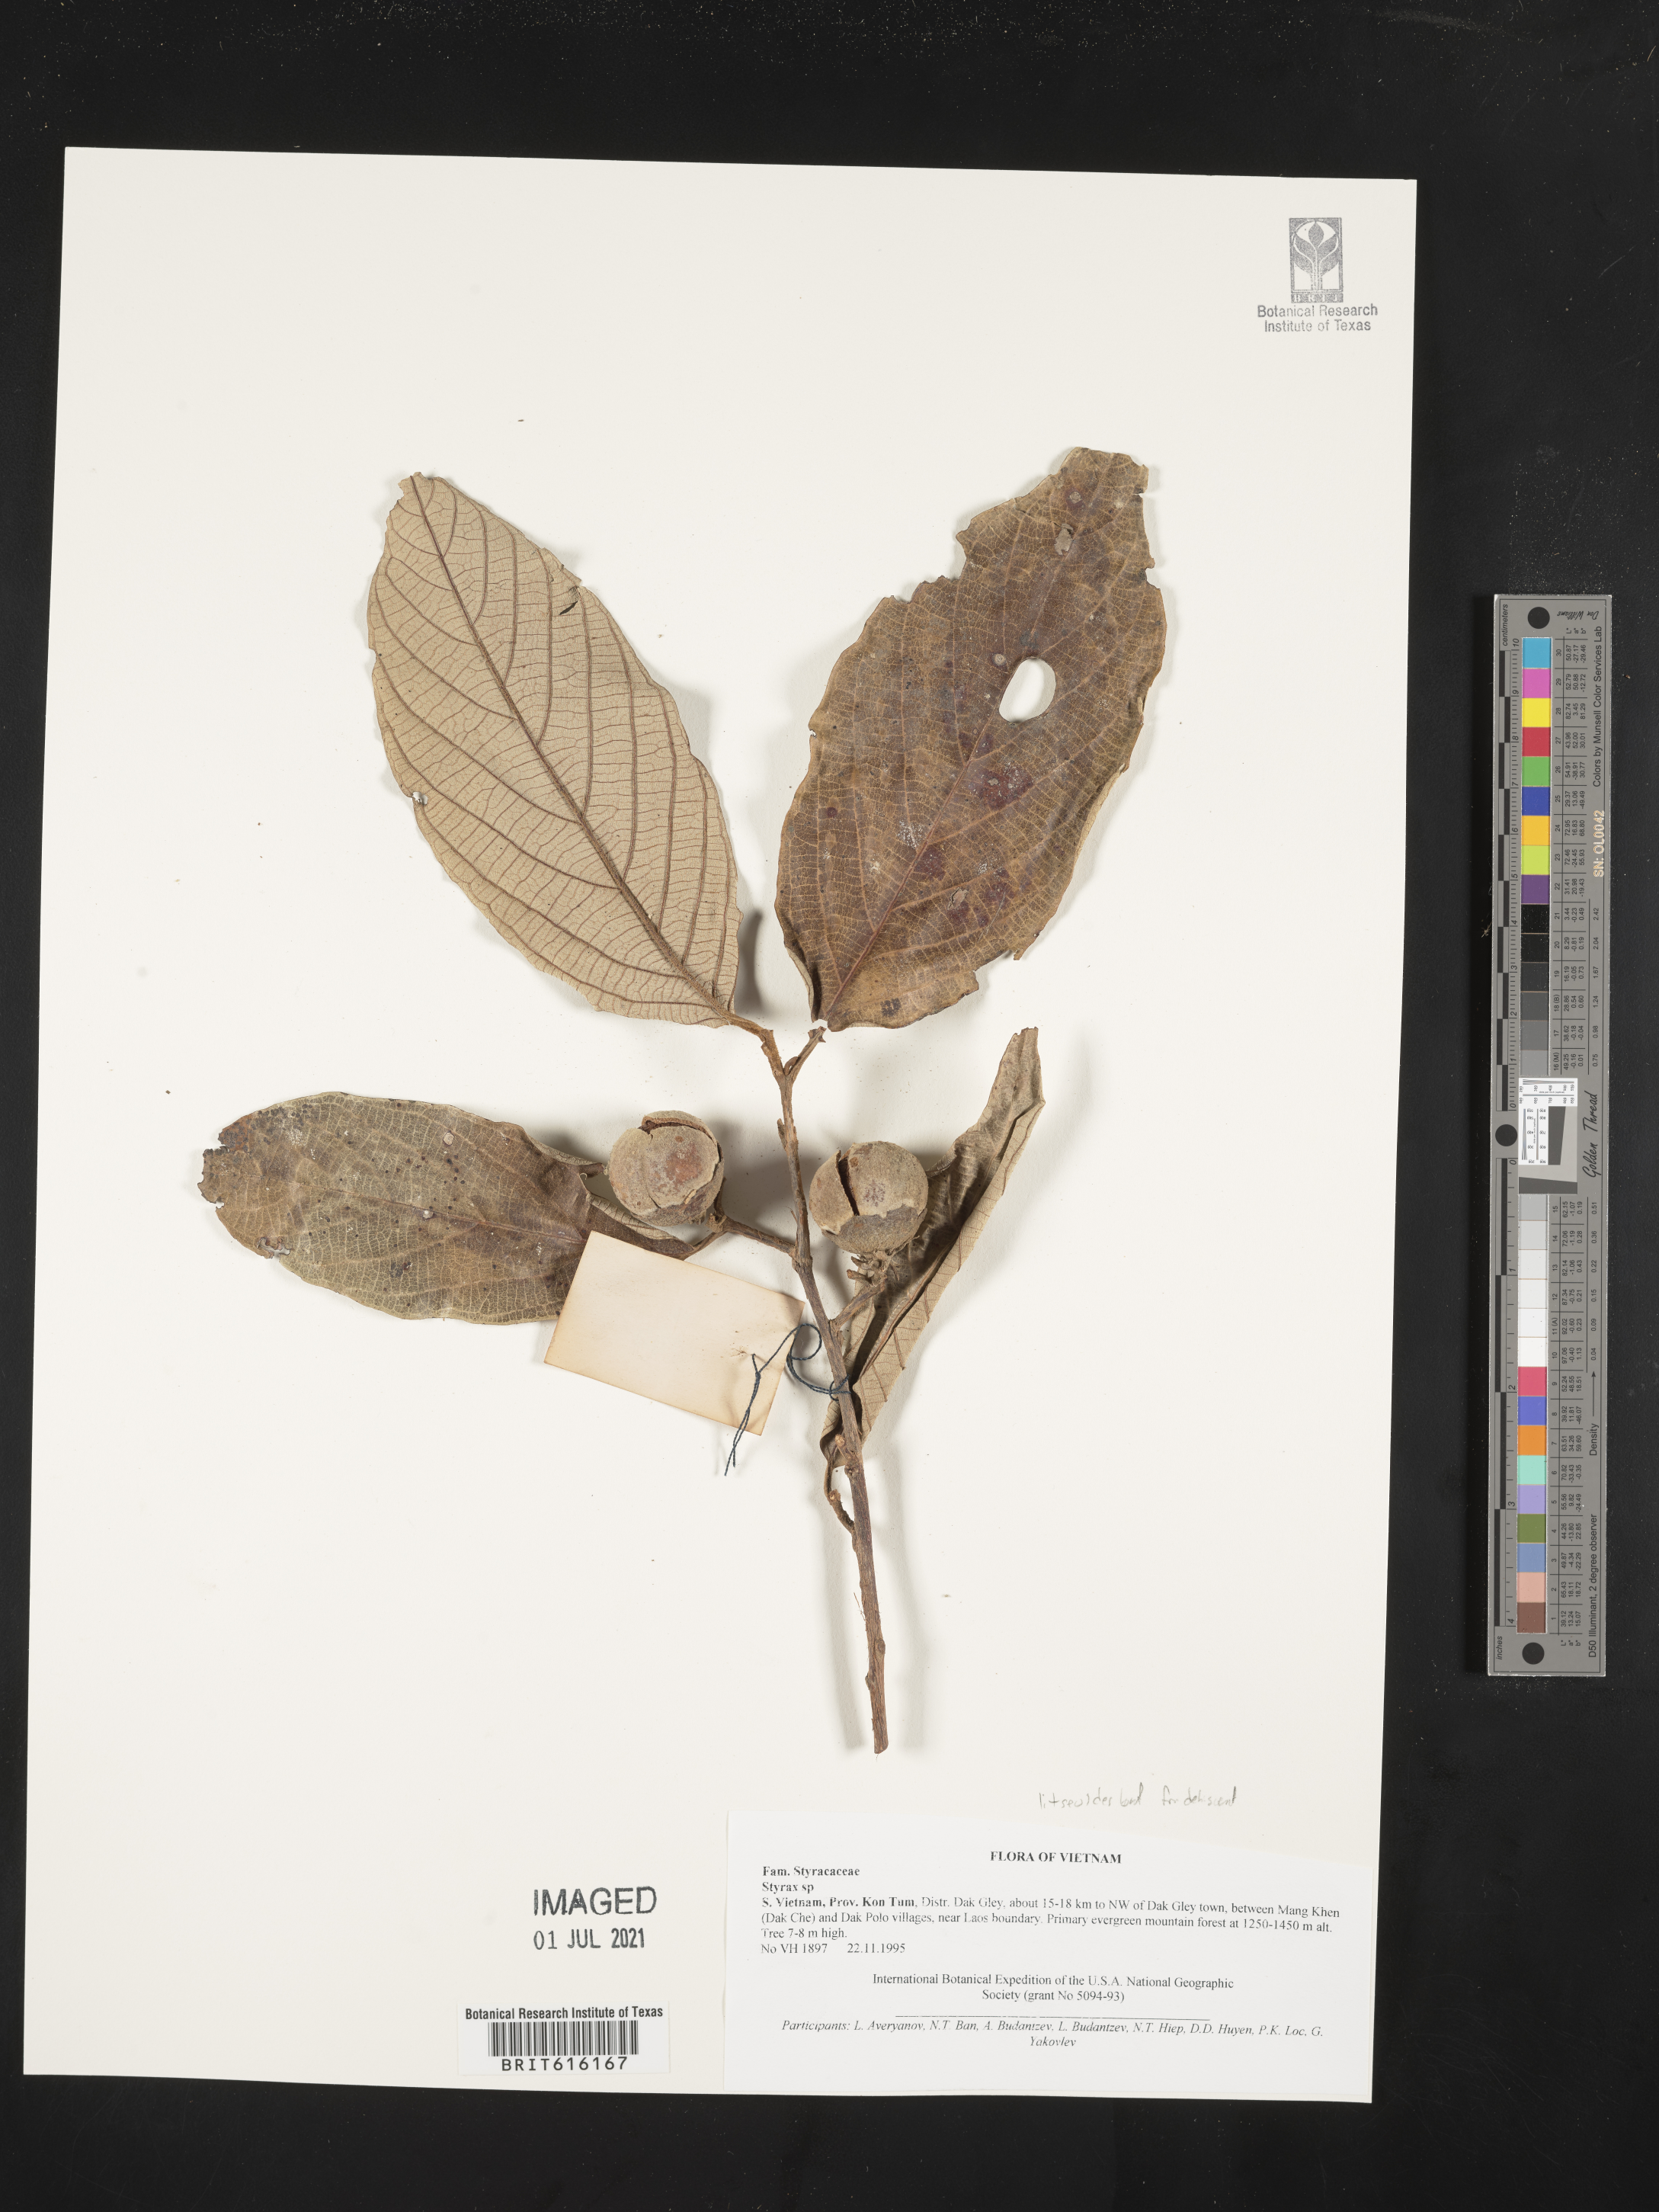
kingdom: Plantae
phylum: Tracheophyta
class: Magnoliopsida
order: Ericales
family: Styracaceae
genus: Styrax
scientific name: Styrax
